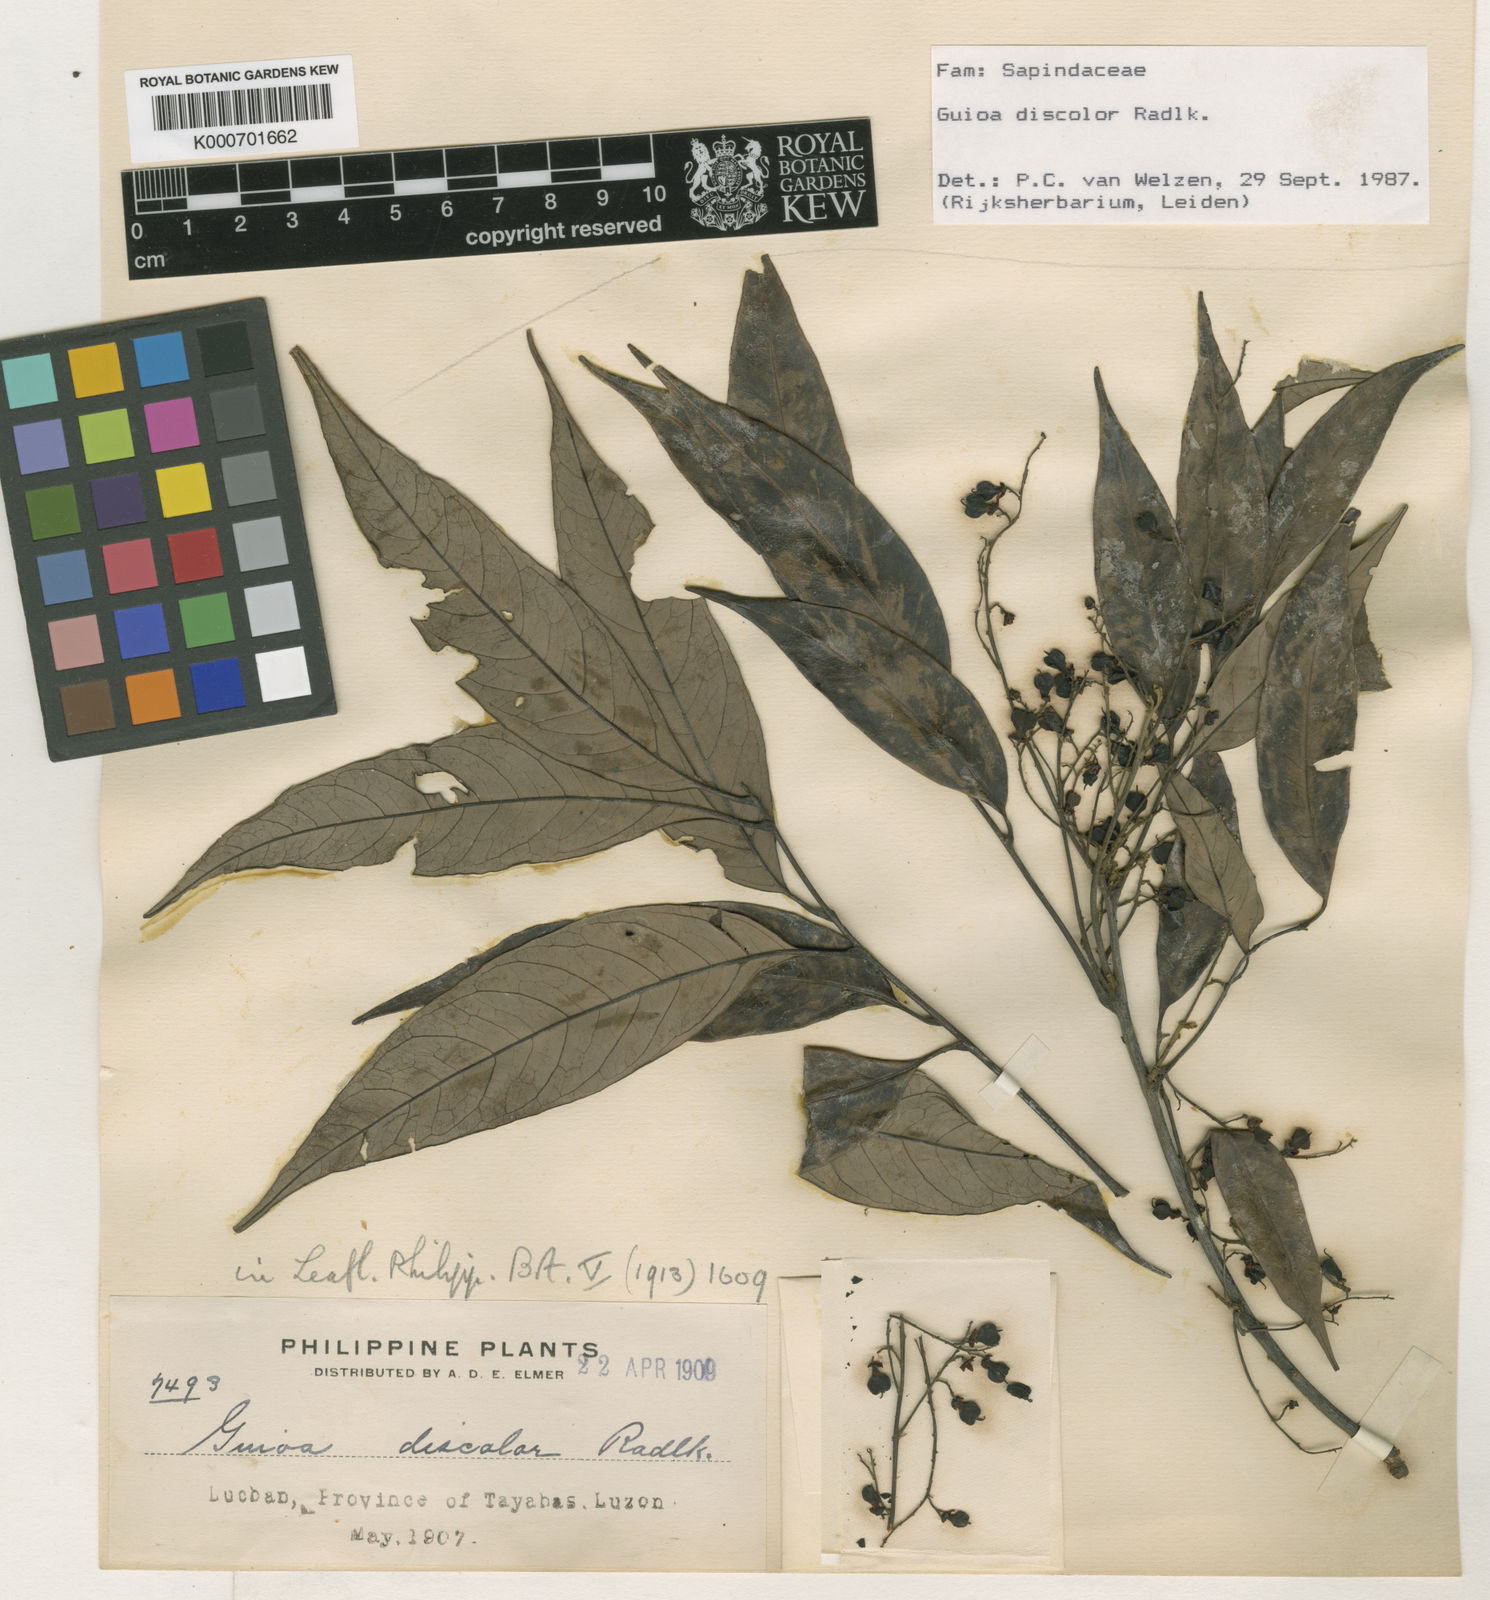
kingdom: Plantae
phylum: Tracheophyta
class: Magnoliopsida
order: Sapindales
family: Sapindaceae
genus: Guioa
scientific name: Guioa discolor
